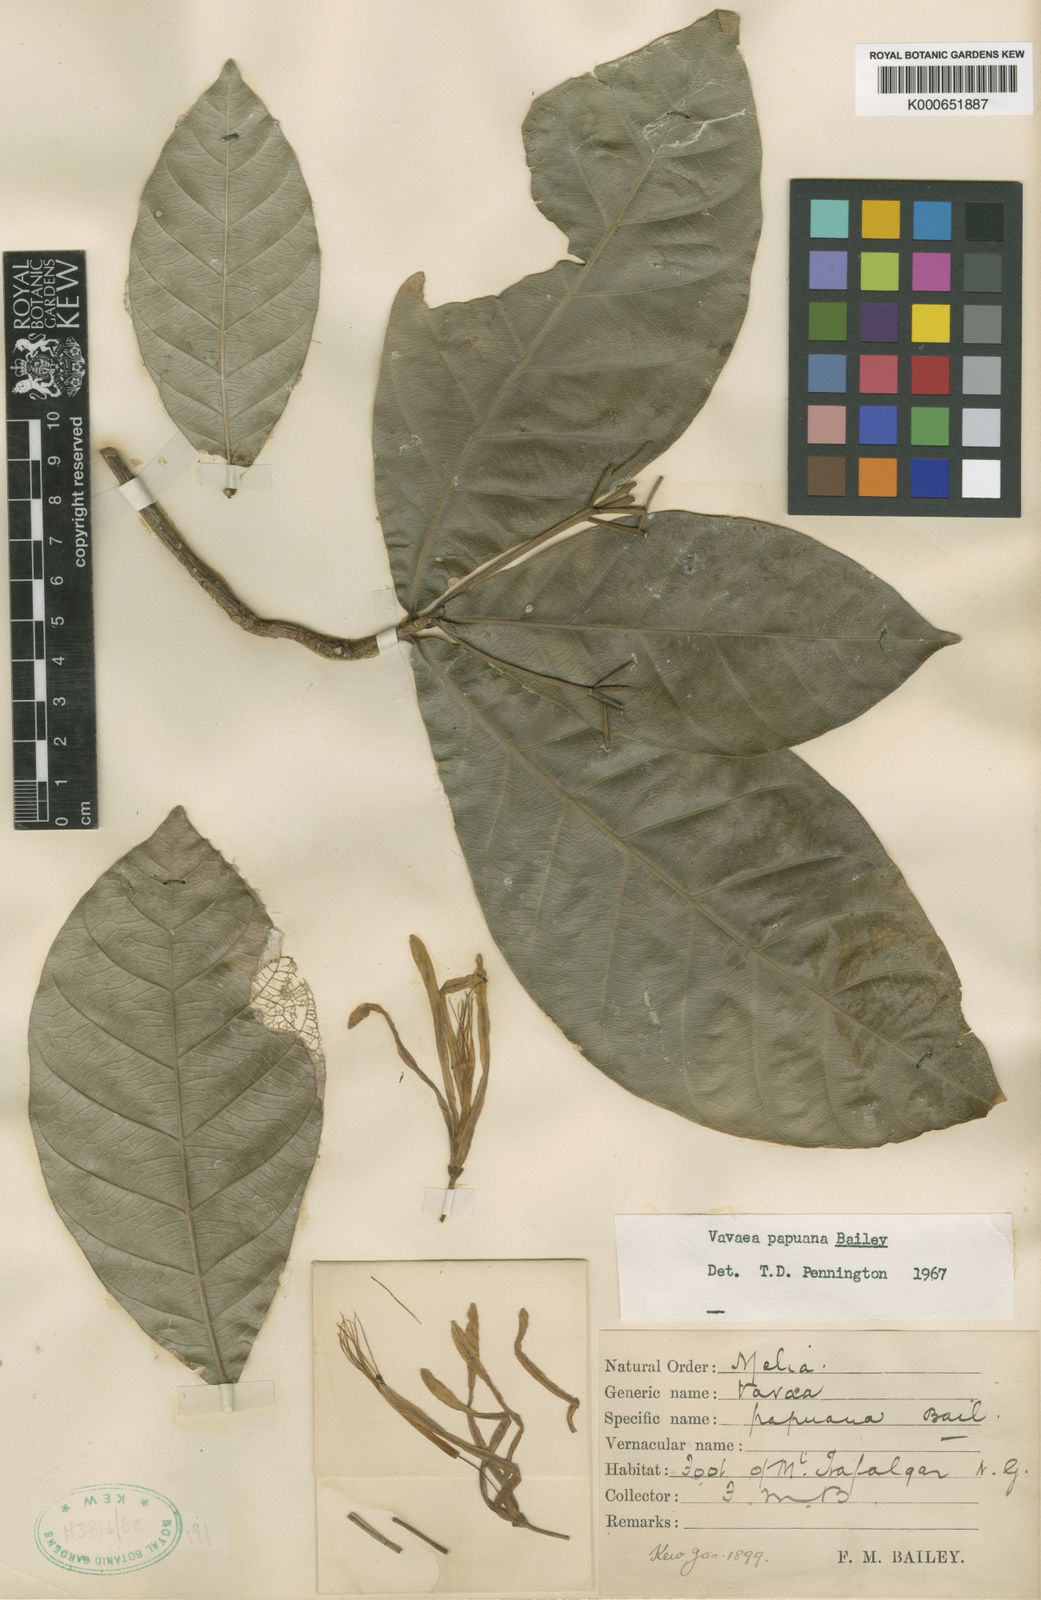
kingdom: Plantae
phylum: Tracheophyta
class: Magnoliopsida
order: Sapindales
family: Meliaceae
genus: Vavaea
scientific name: Vavaea amicorum
